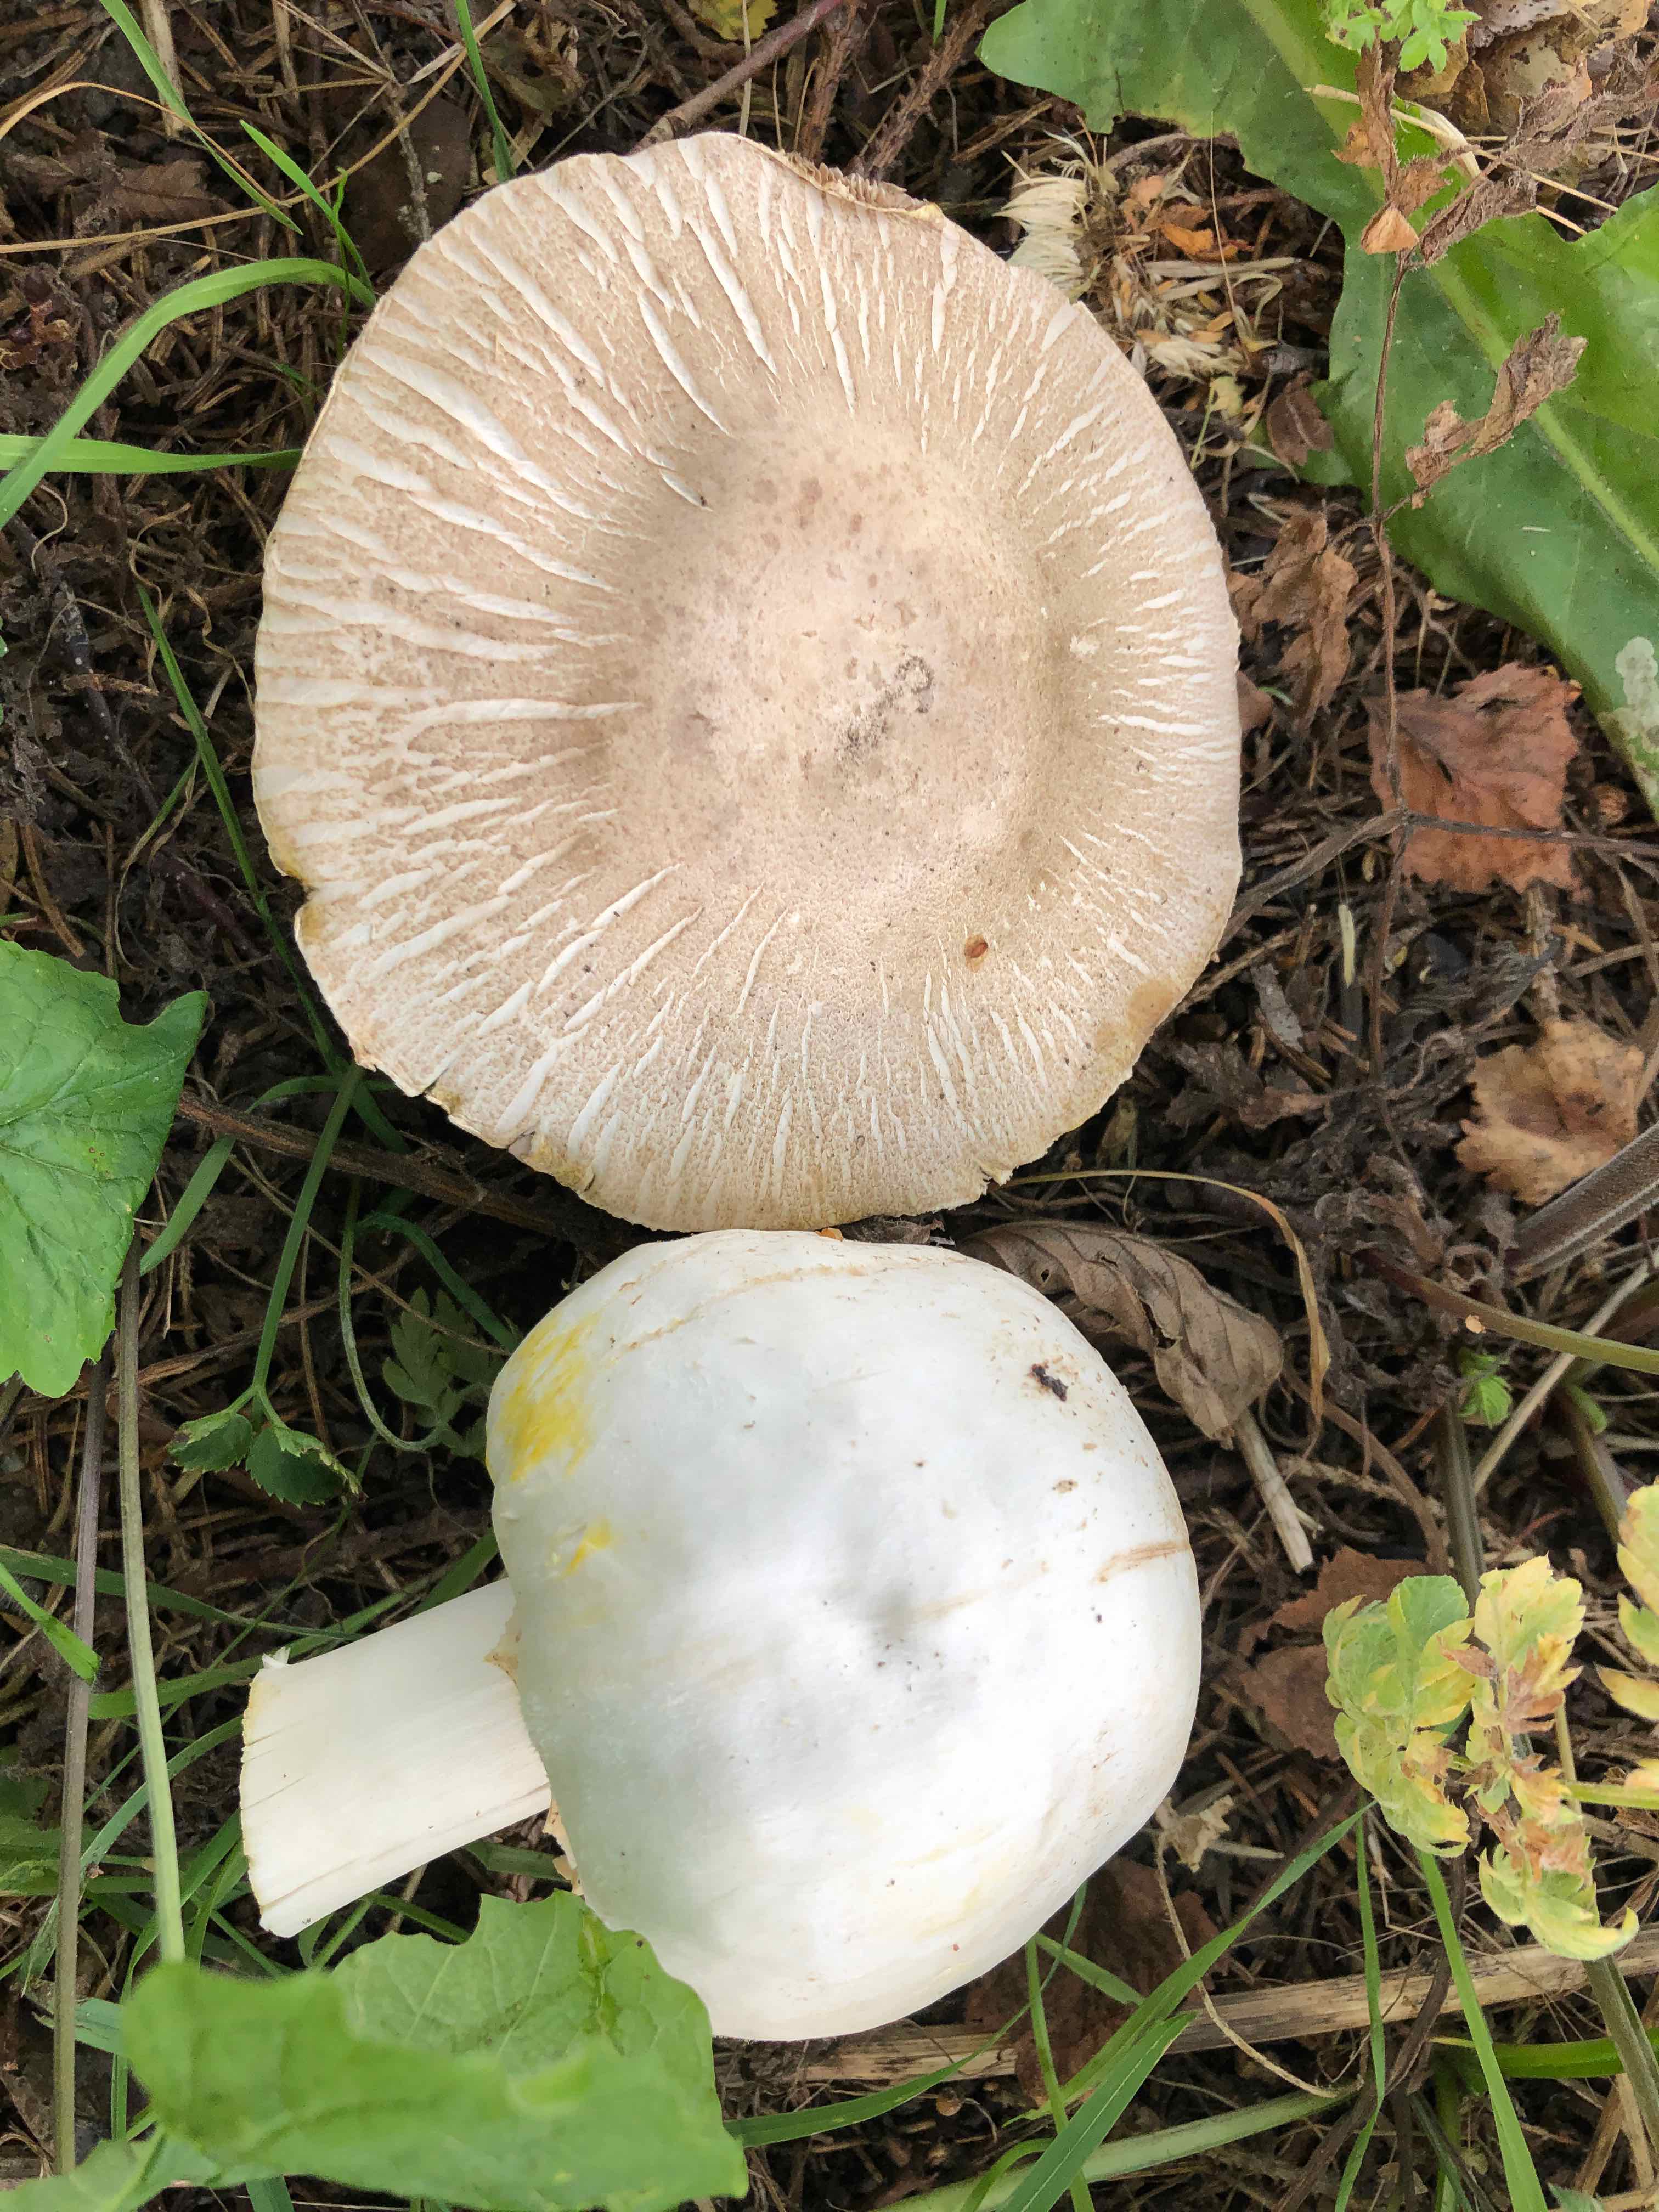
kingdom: Fungi
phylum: Basidiomycota
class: Agaricomycetes
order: Agaricales
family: Agaricaceae
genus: Agaricus
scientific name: Agaricus xanthodermus
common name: karbol-champignon
